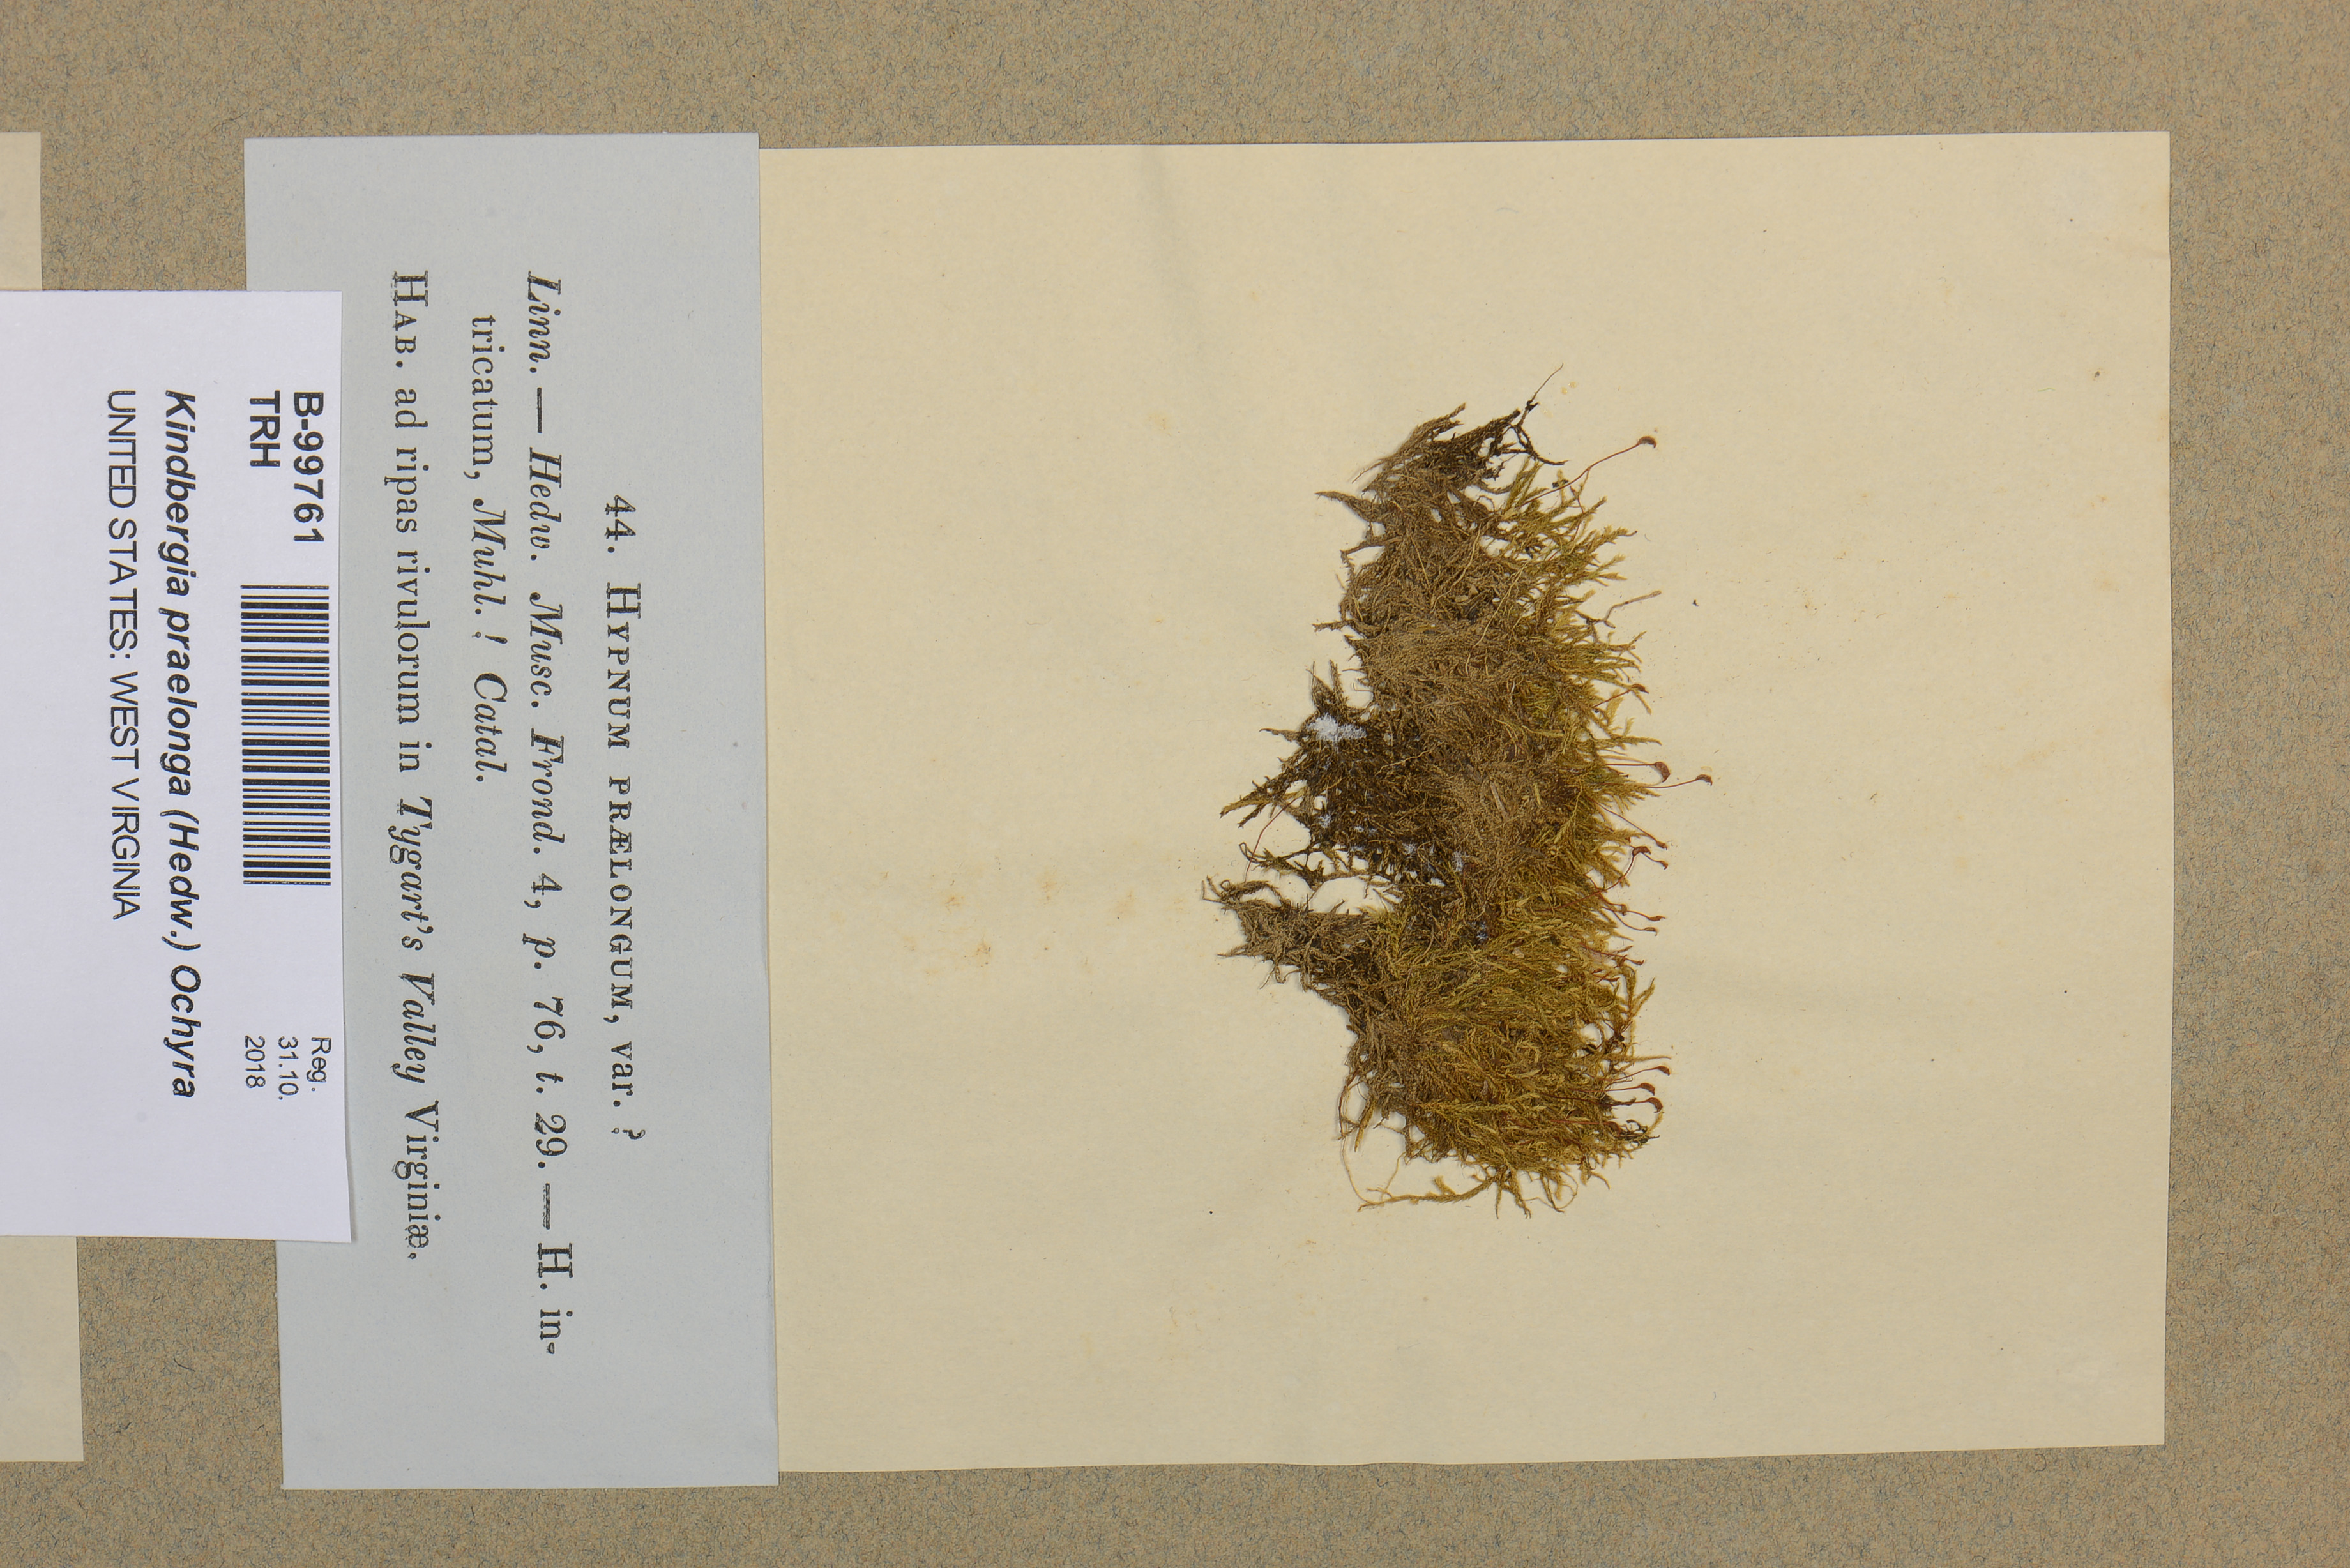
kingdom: Plantae
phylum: Bryophyta
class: Bryopsida
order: Hypnales
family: Brachytheciaceae
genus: Kindbergia
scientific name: Kindbergia praelonga
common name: Slender beaked moss
